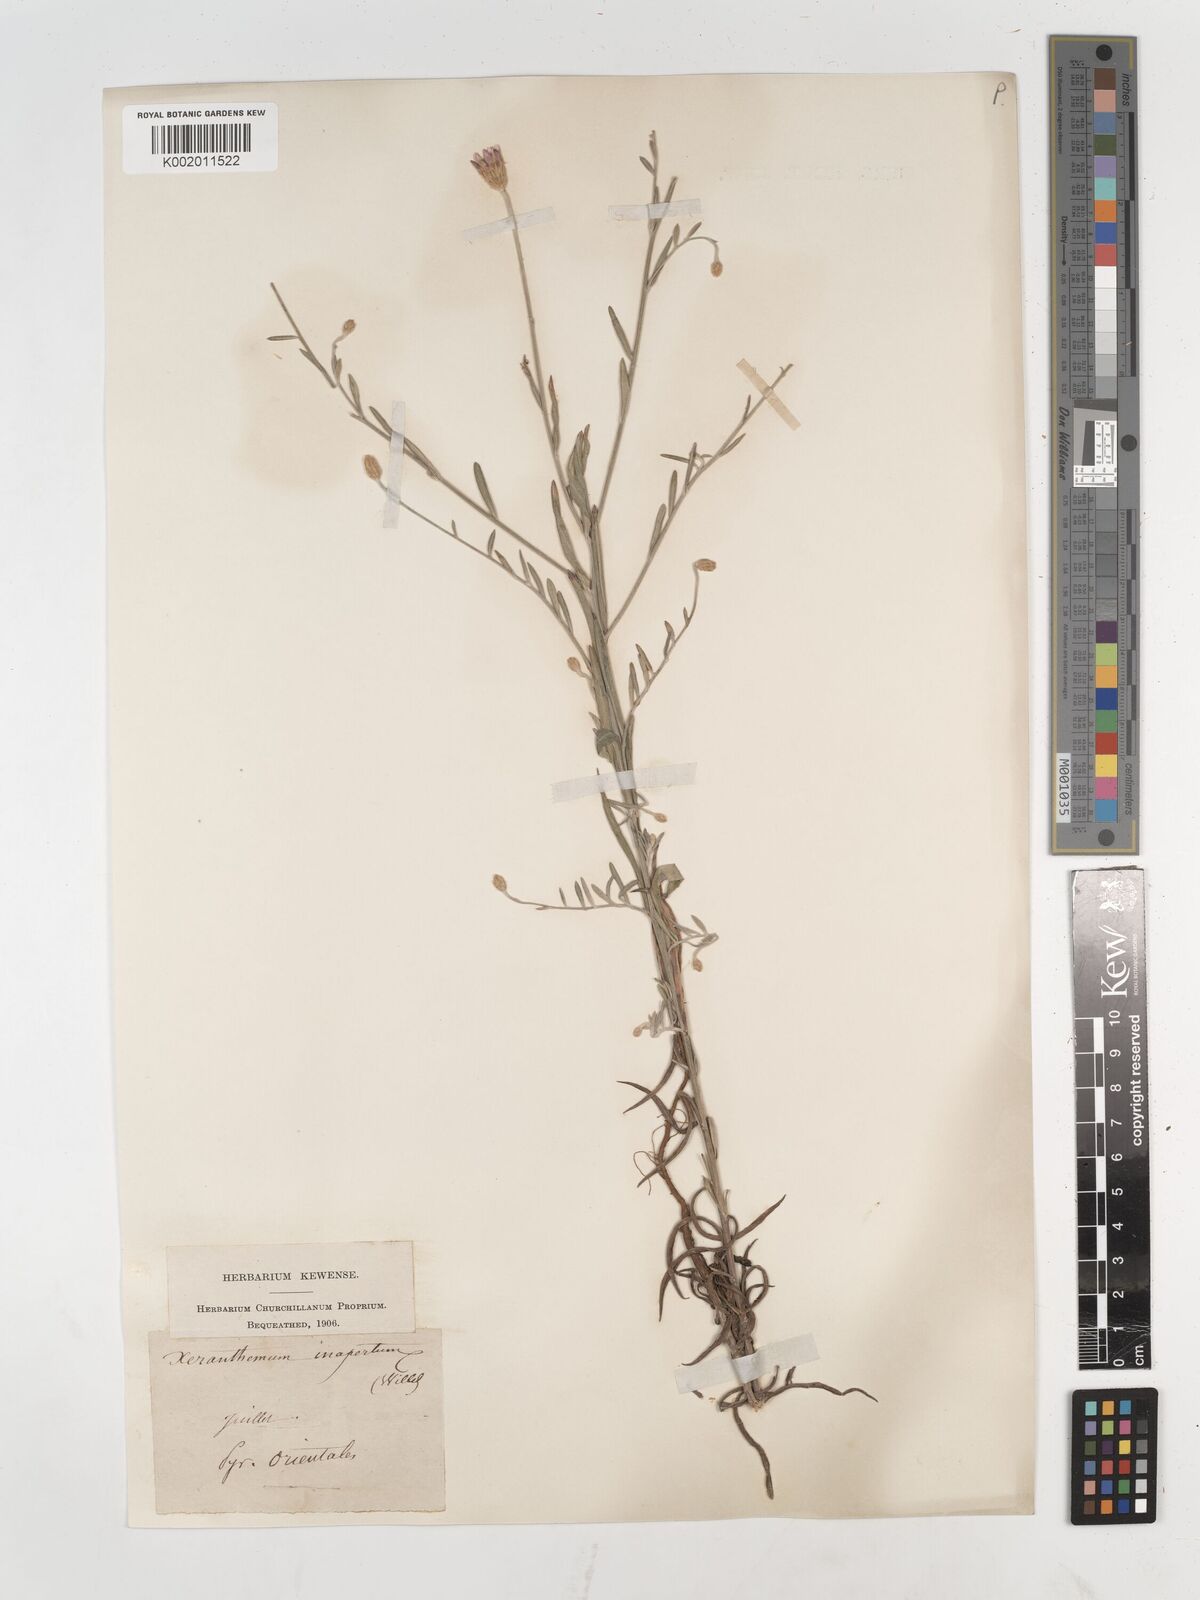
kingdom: Plantae
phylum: Tracheophyta
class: Magnoliopsida
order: Asterales
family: Asteraceae
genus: Xeranthemum
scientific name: Xeranthemum cylindraceum
